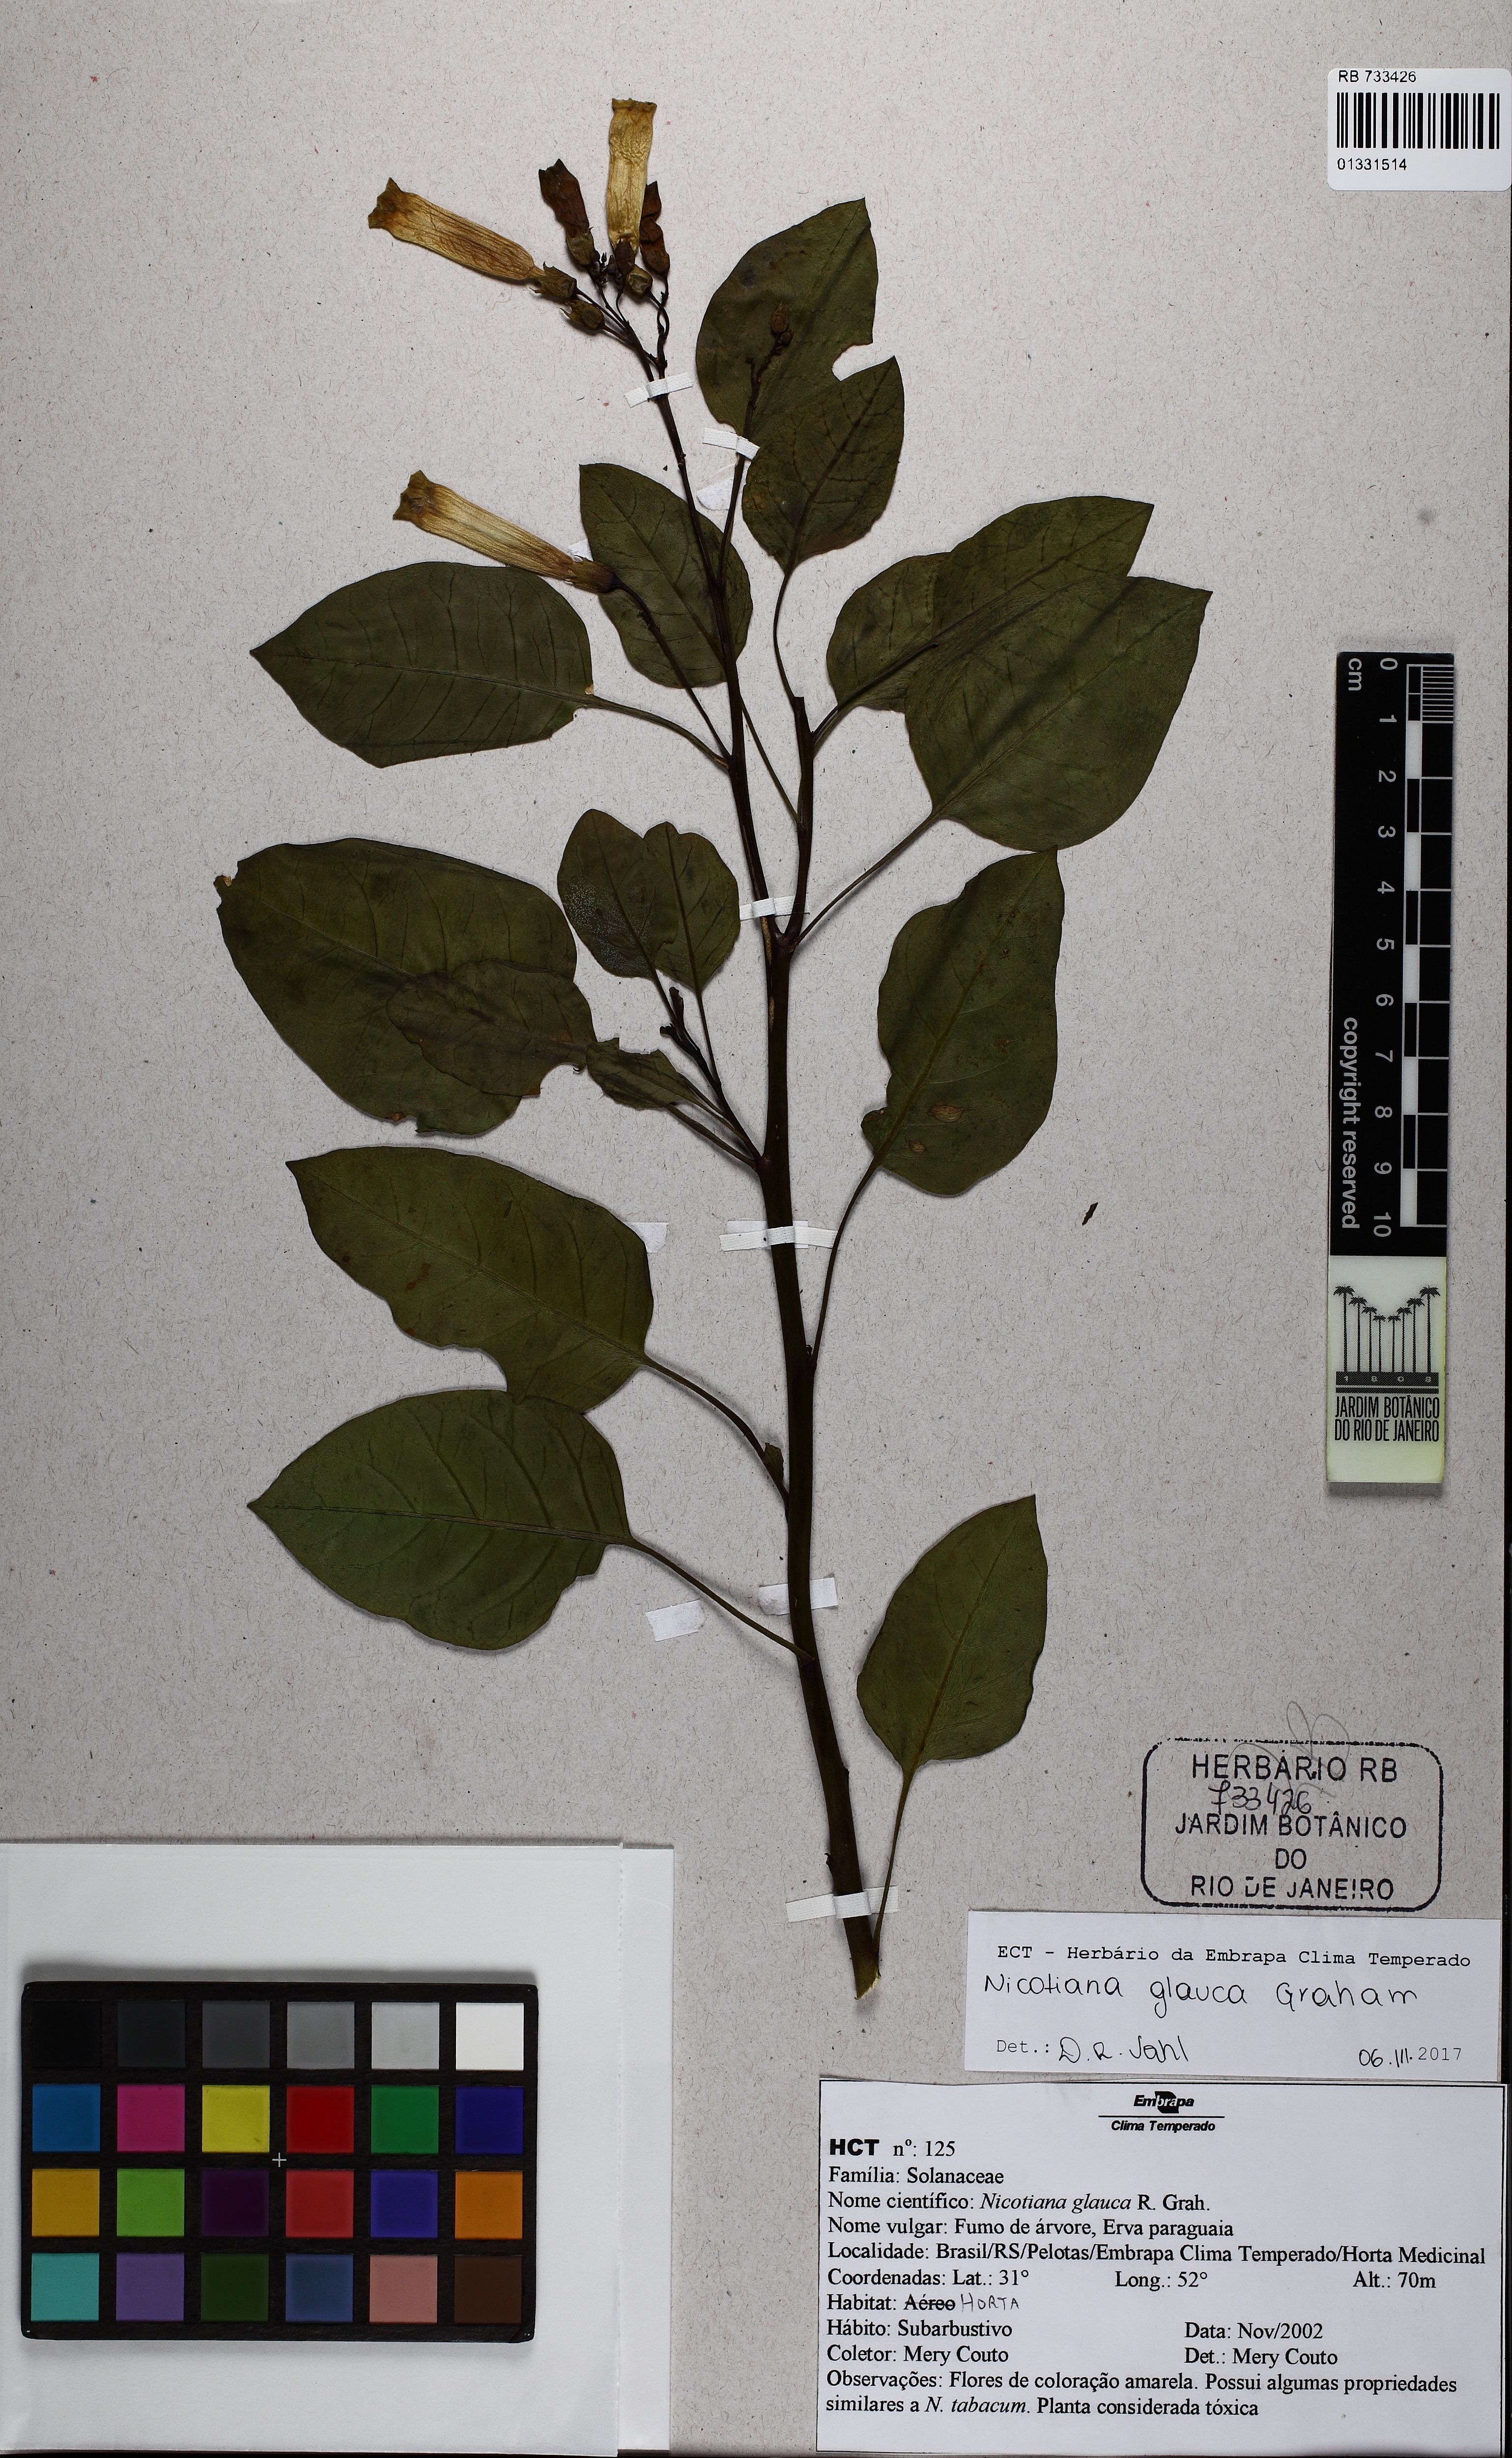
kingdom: Plantae
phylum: Tracheophyta
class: Magnoliopsida
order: Solanales
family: Solanaceae
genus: Nicotiana
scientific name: Nicotiana glauca
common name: Tree tobacco
